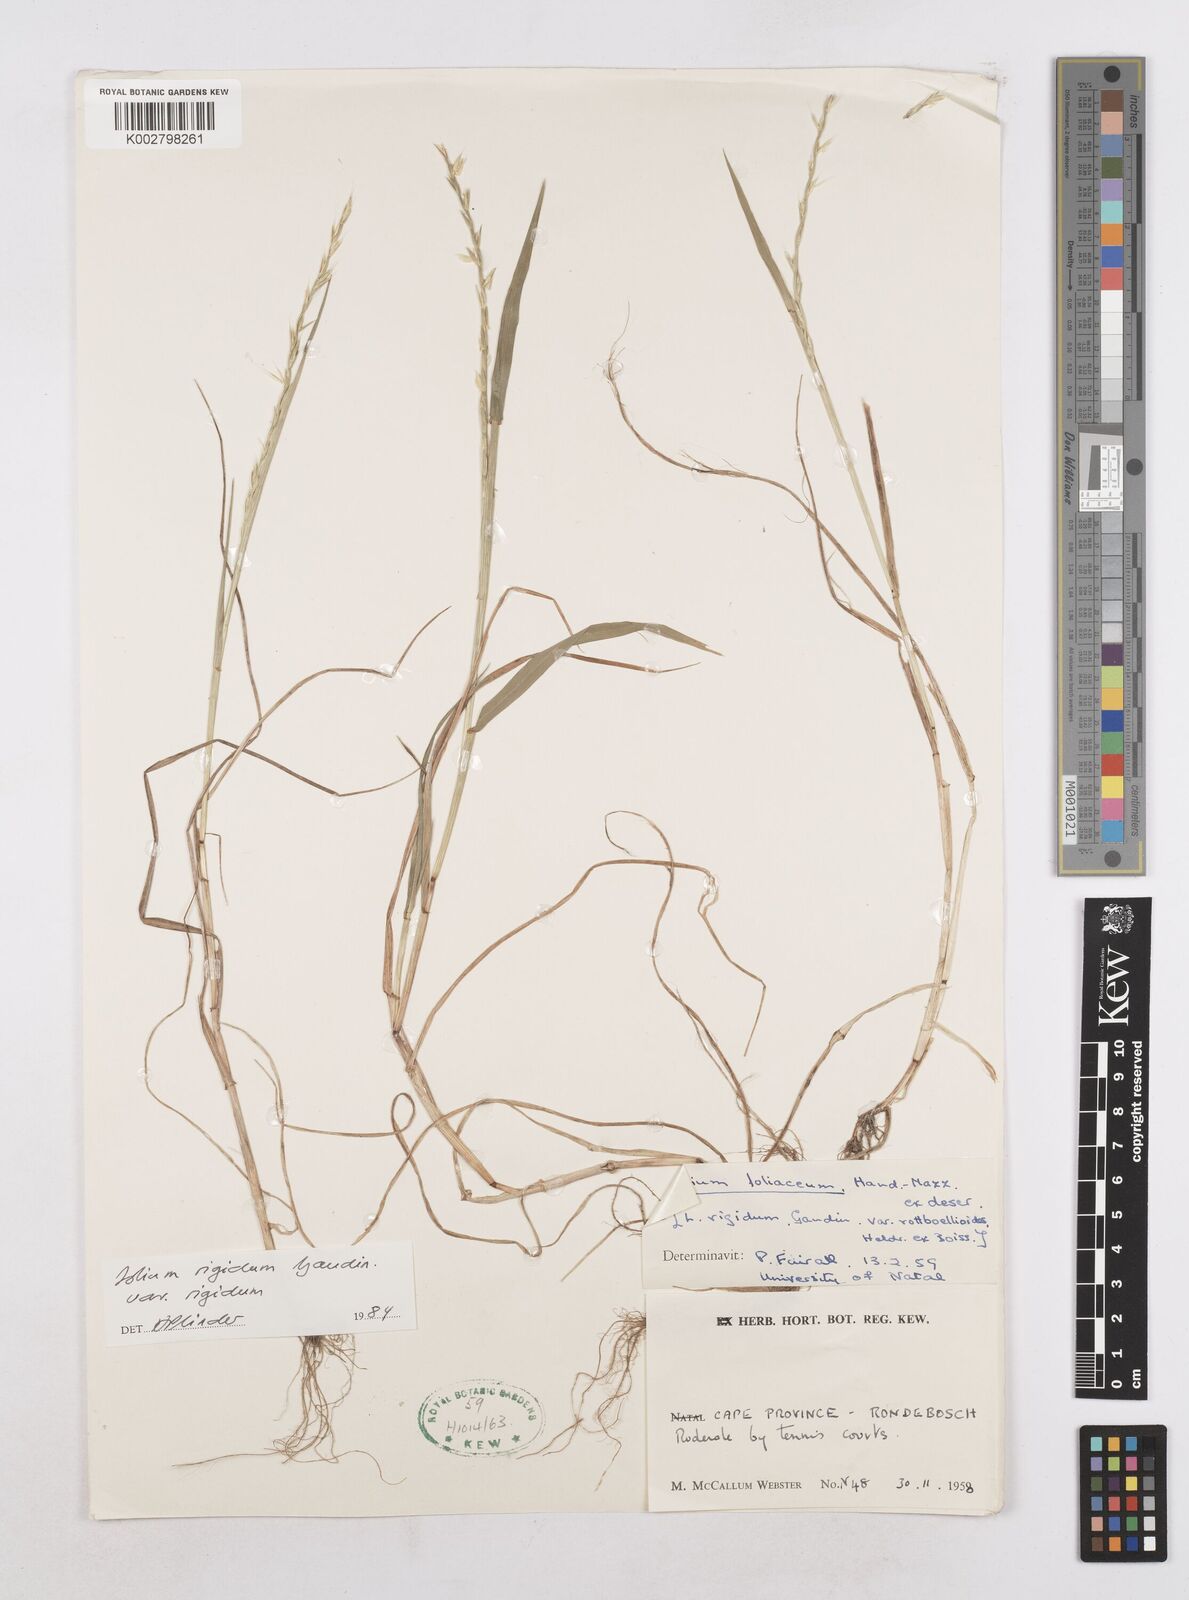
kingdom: Plantae
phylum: Tracheophyta
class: Liliopsida
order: Poales
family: Poaceae
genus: Lolium
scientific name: Lolium rigidum
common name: Wimmera ryegrass
